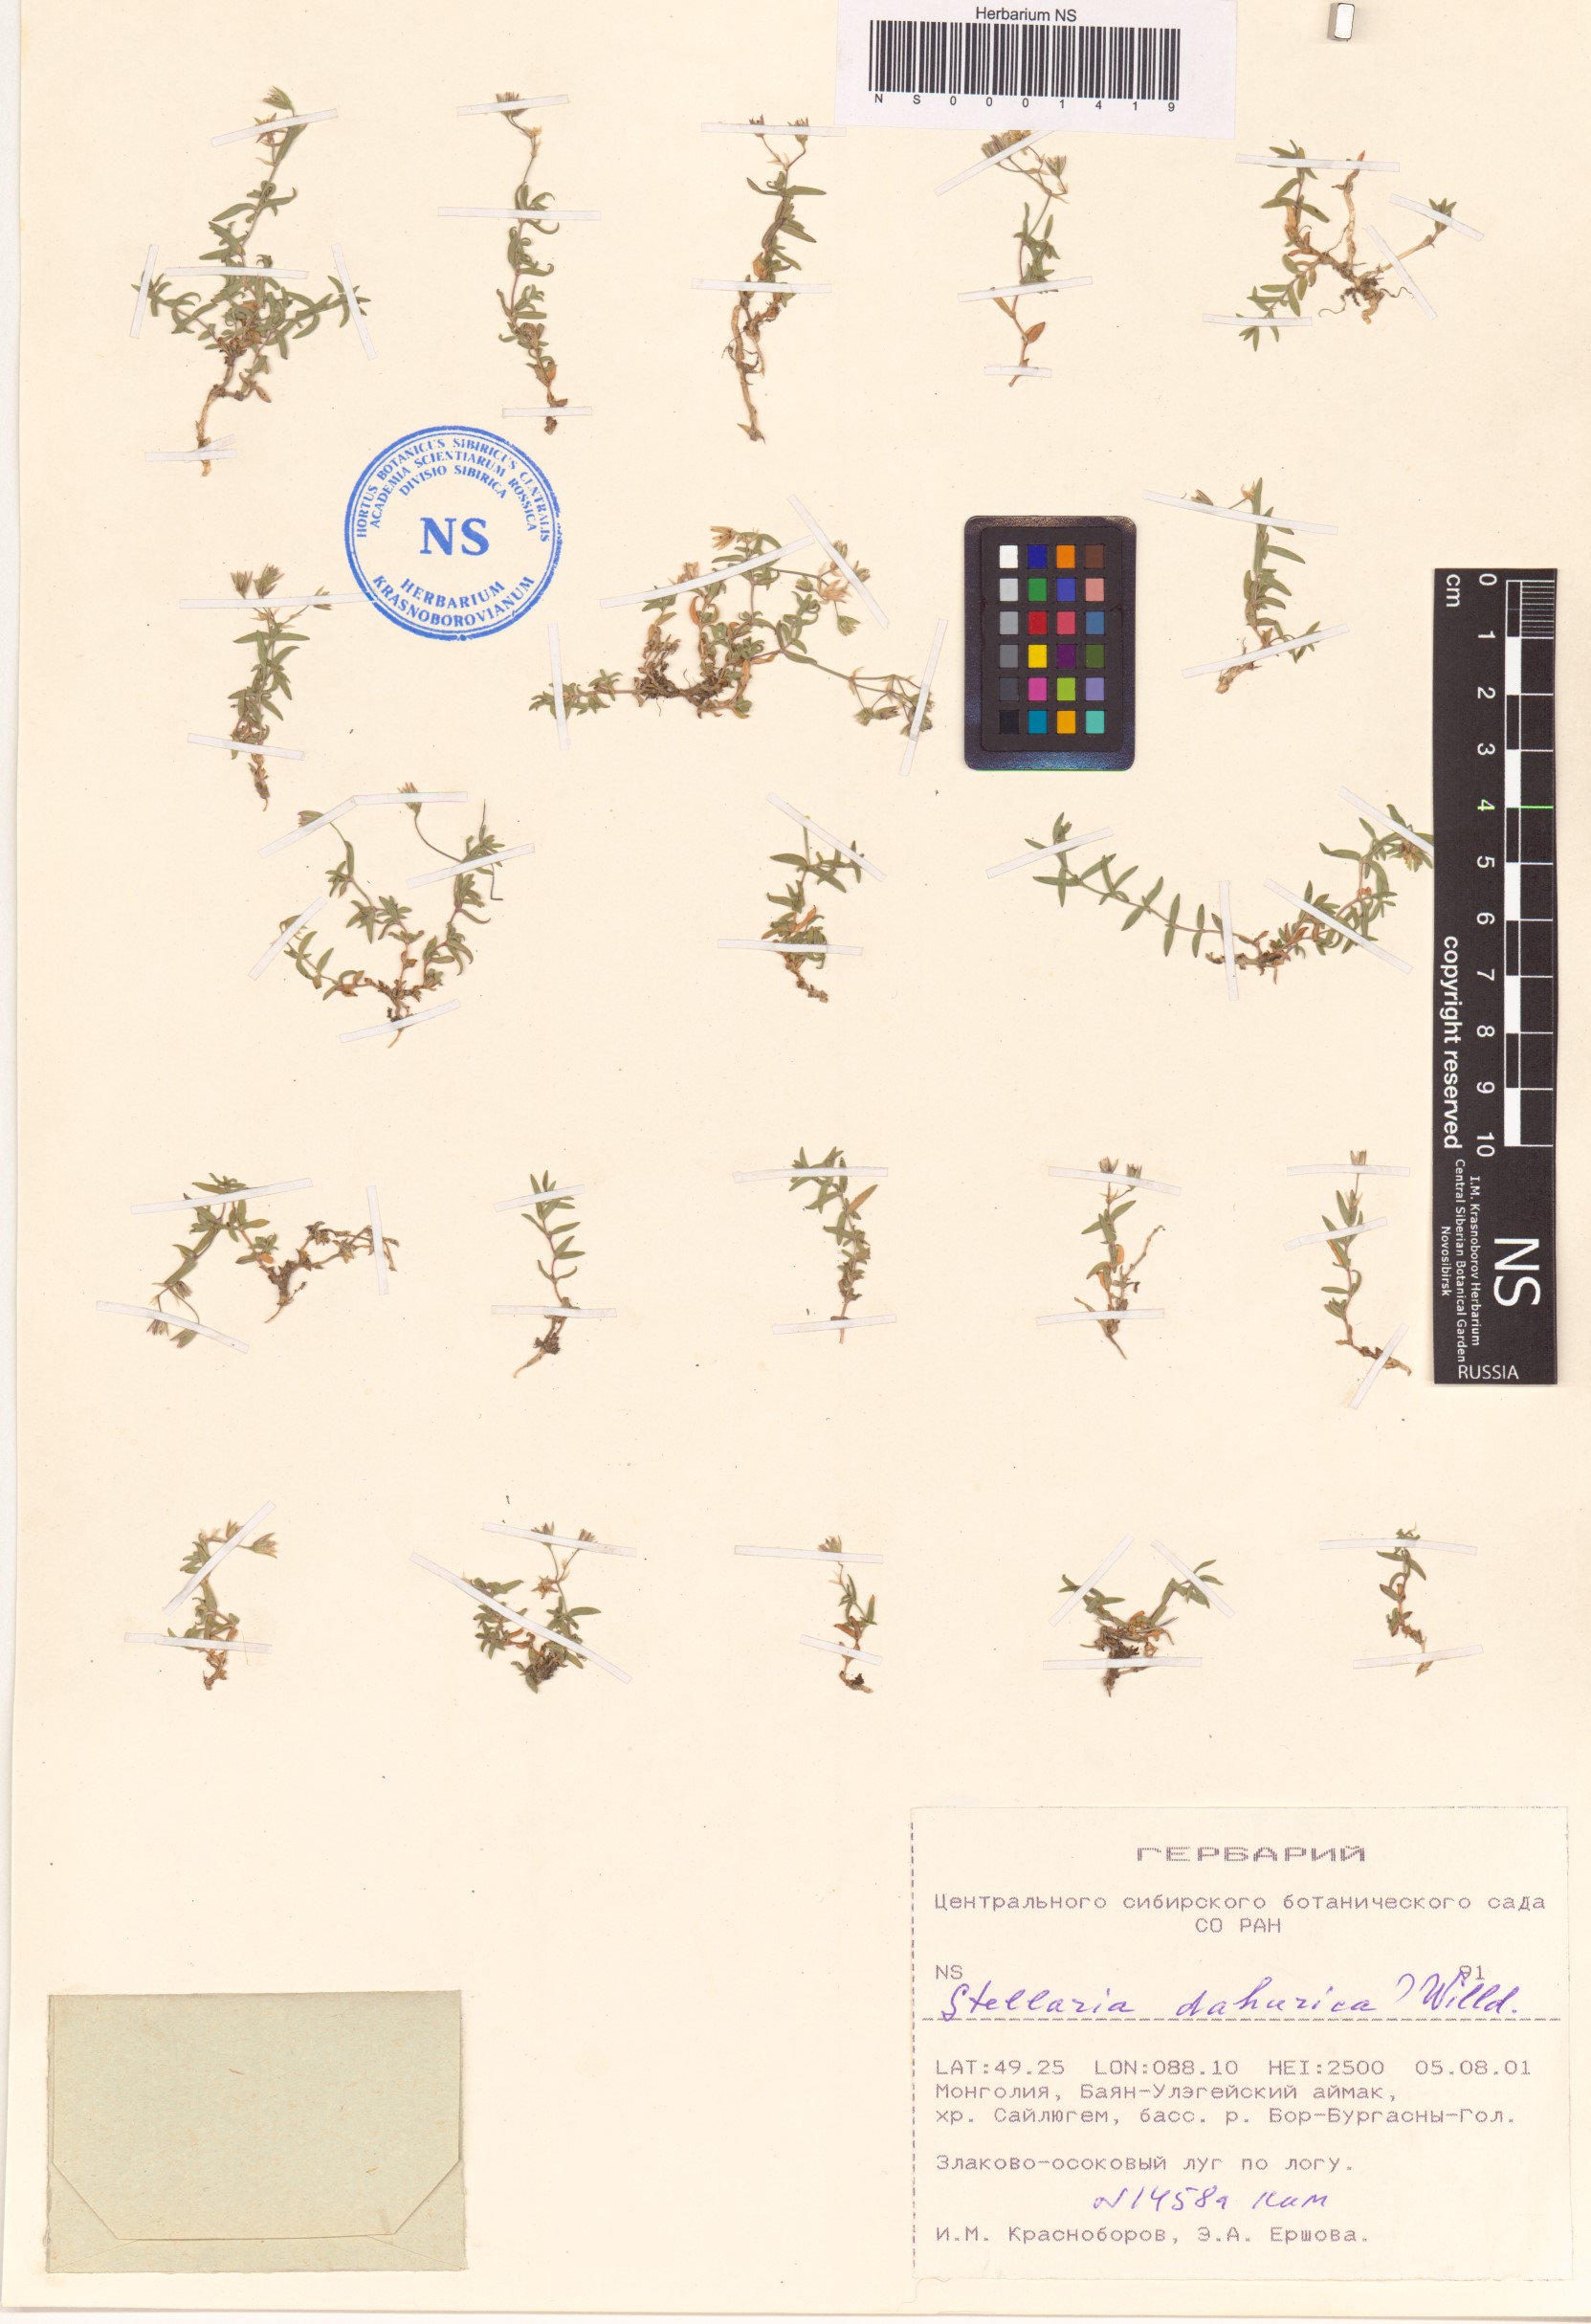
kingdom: Plantae
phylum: Tracheophyta
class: Magnoliopsida
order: Caryophyllales
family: Caryophyllaceae
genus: Stellaria
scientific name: Stellaria dahurica
